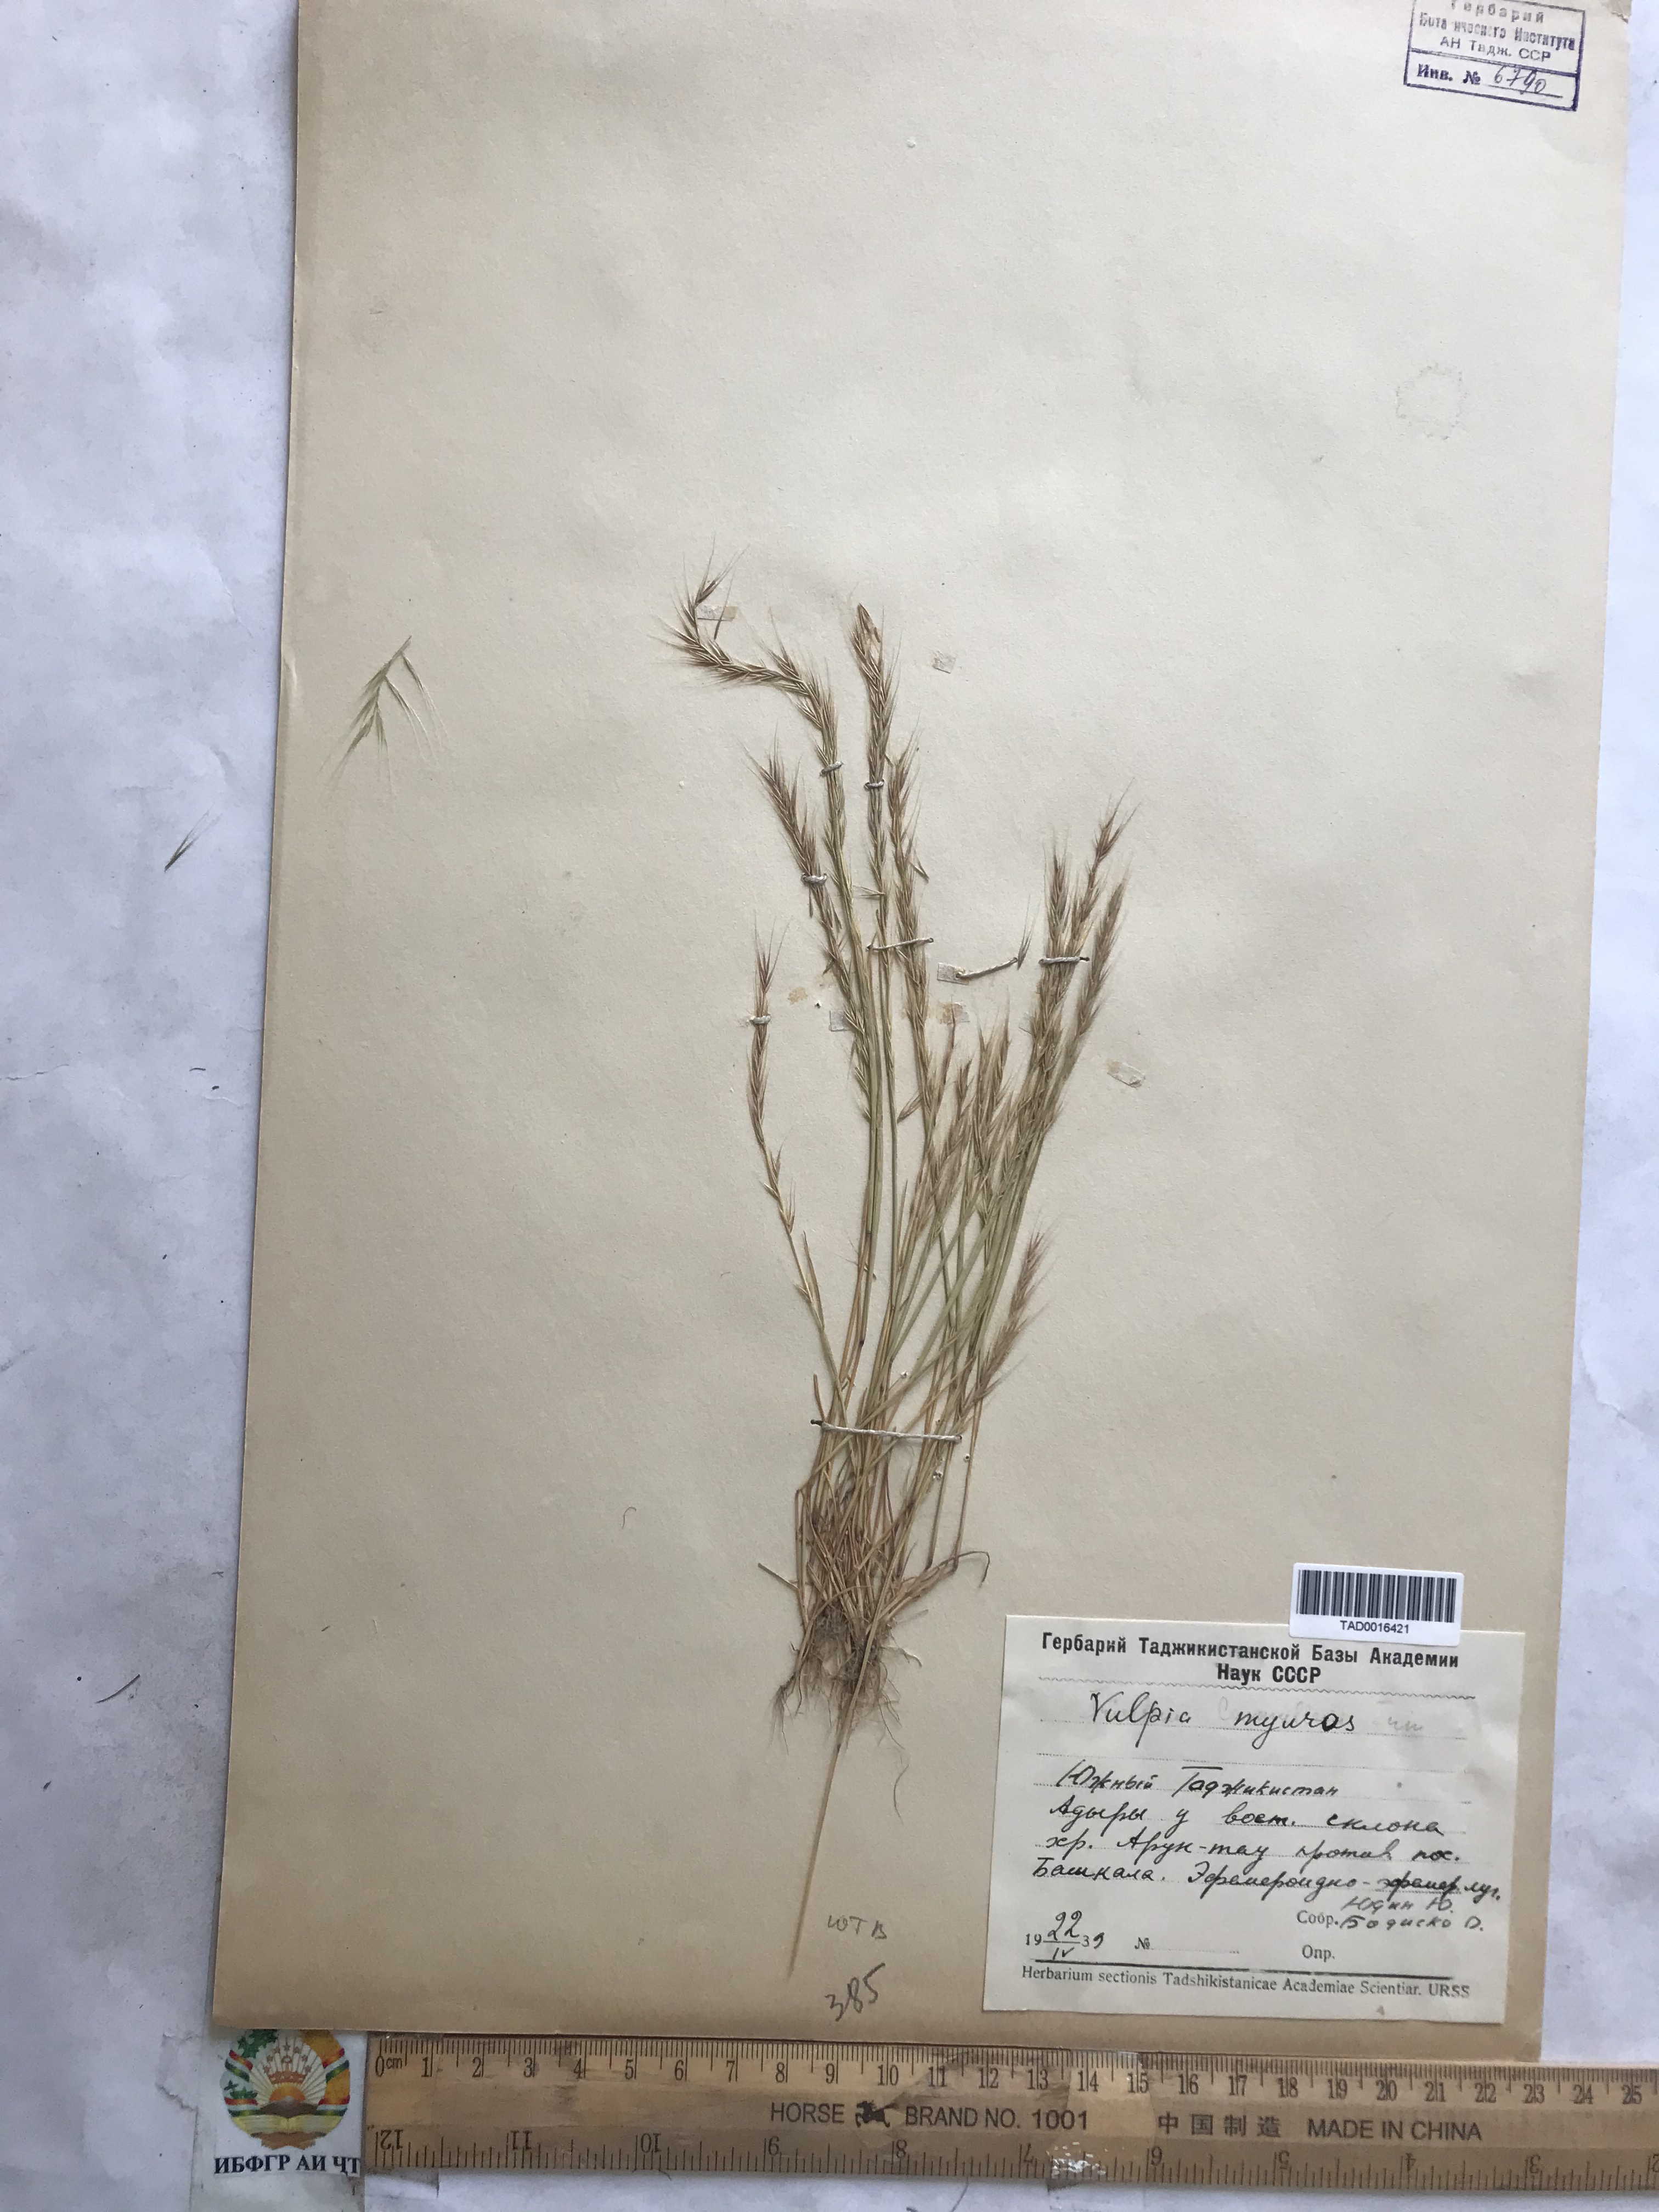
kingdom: Plantae
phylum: Tracheophyta
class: Liliopsida
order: Poales
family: Poaceae
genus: Festuca
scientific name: Festuca myuros
